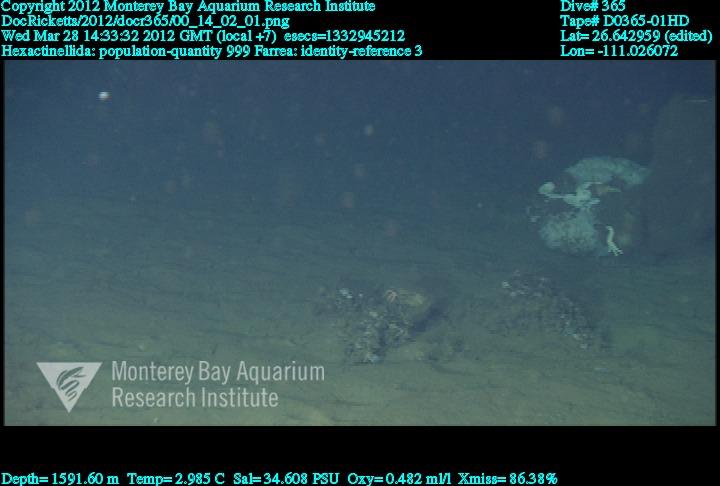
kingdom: Animalia
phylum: Porifera
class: Hexactinellida
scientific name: Hexactinellida
